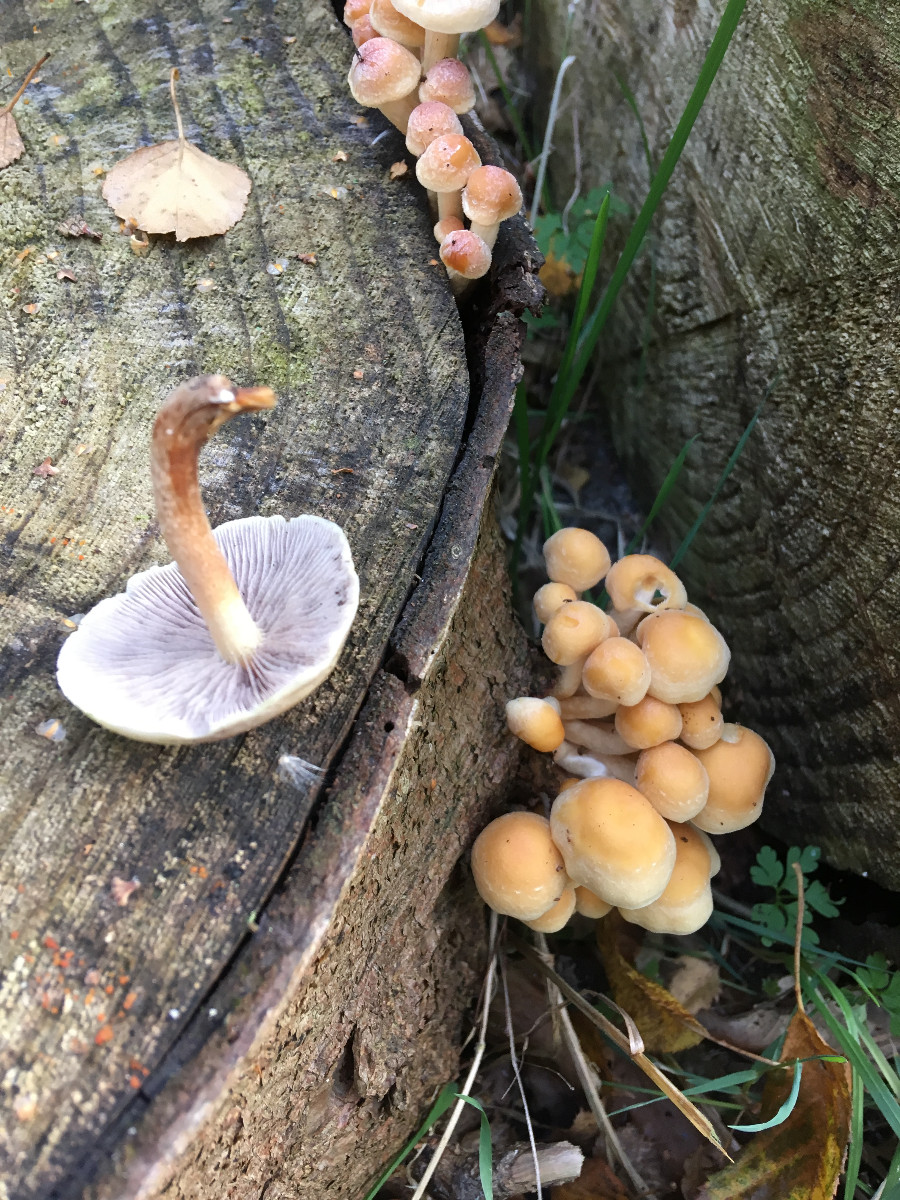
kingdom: Fungi
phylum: Basidiomycota
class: Agaricomycetes
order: Agaricales
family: Strophariaceae
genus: Hypholoma
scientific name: Hypholoma capnoides
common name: gran-svovlhat
